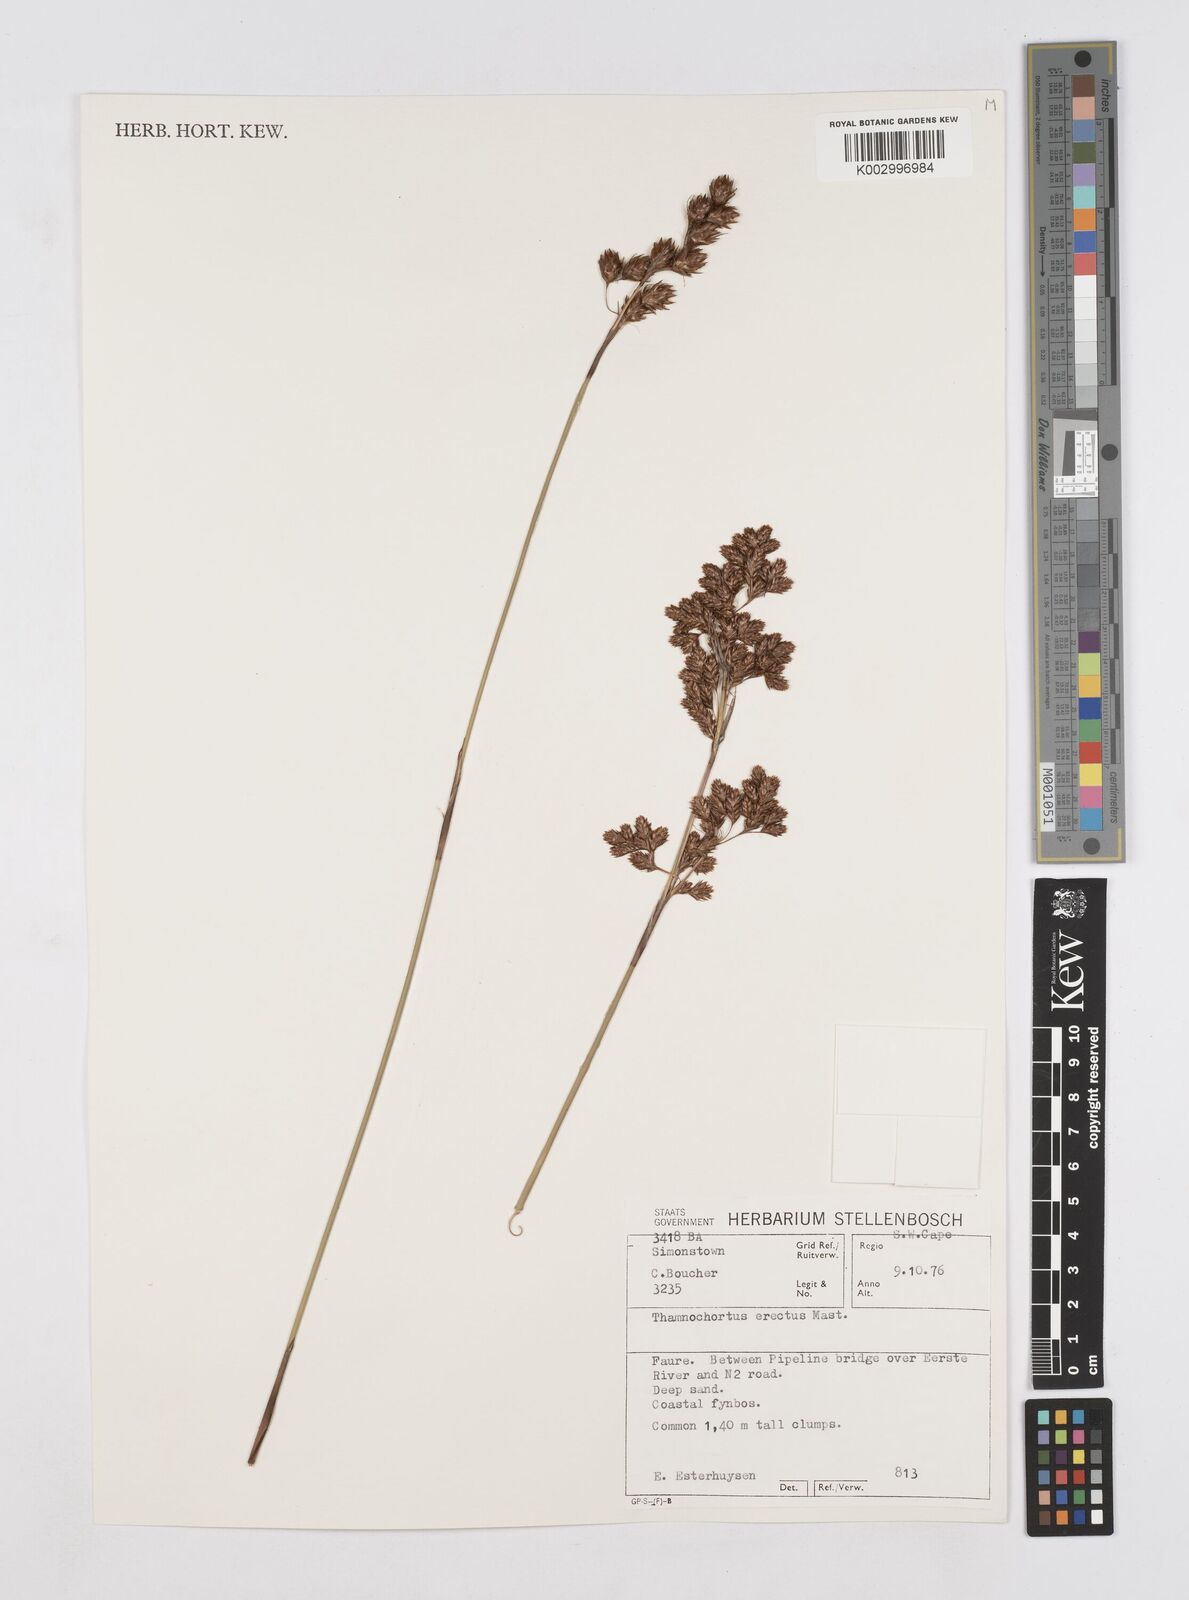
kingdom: Plantae
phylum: Tracheophyta
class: Liliopsida
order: Poales
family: Restionaceae
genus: Thamnochortus
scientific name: Thamnochortus erectus
